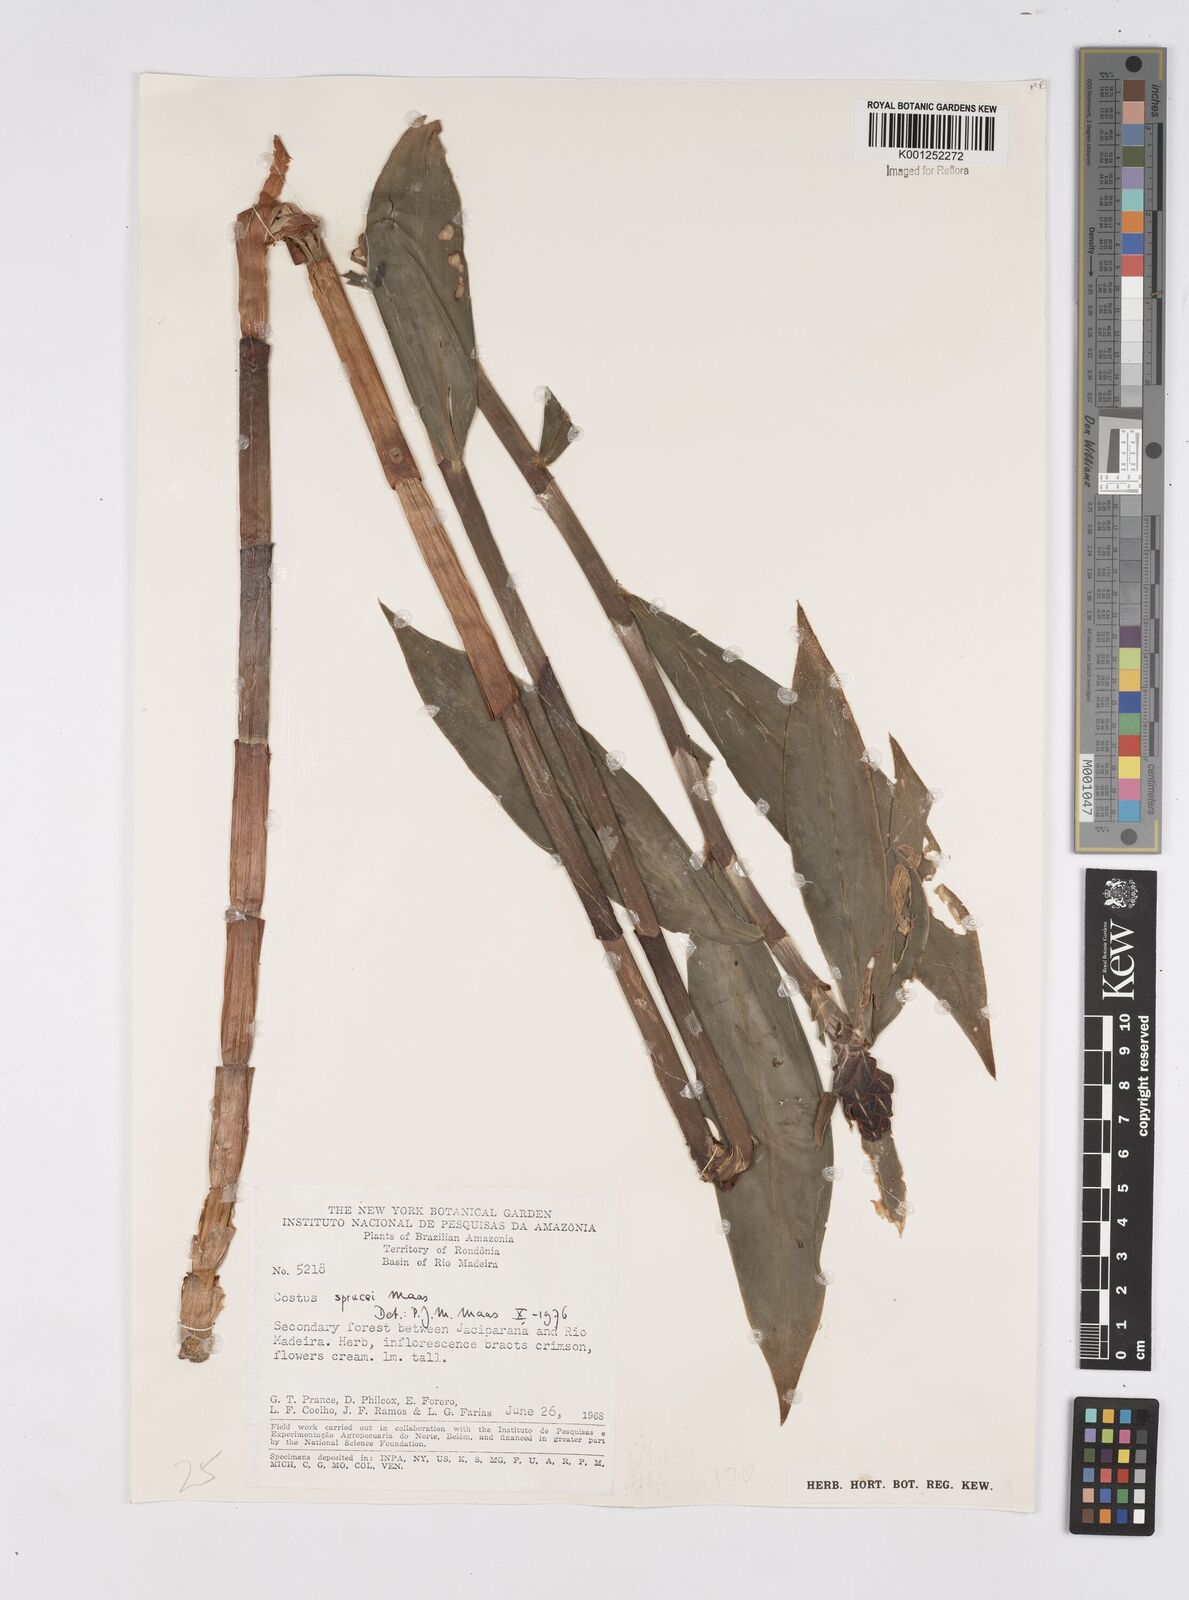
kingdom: Plantae
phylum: Tracheophyta
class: Liliopsida
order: Zingiberales
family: Costaceae
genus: Costus
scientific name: Costus sprucei
